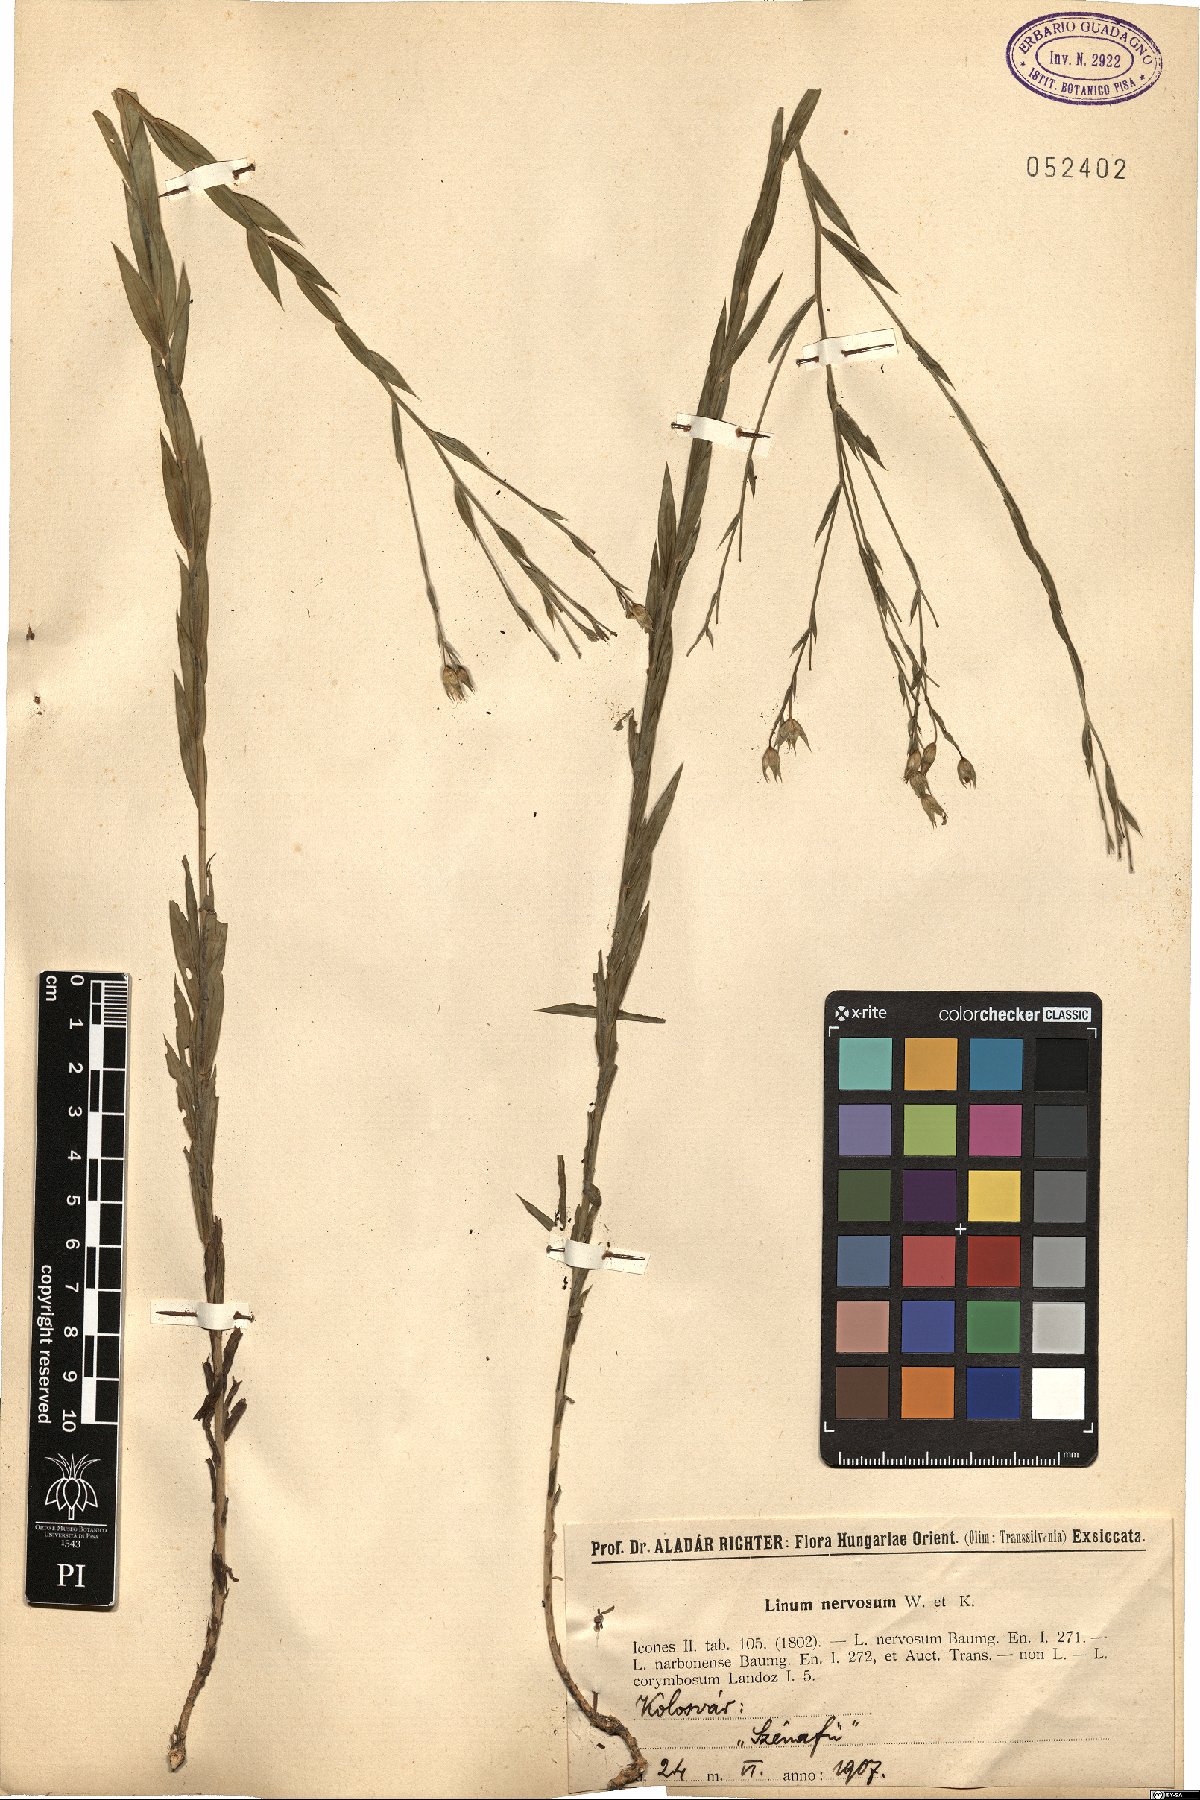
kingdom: Plantae
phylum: Tracheophyta
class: Magnoliopsida
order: Malpighiales
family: Linaceae
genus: Linum
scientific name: Linum nervosum
